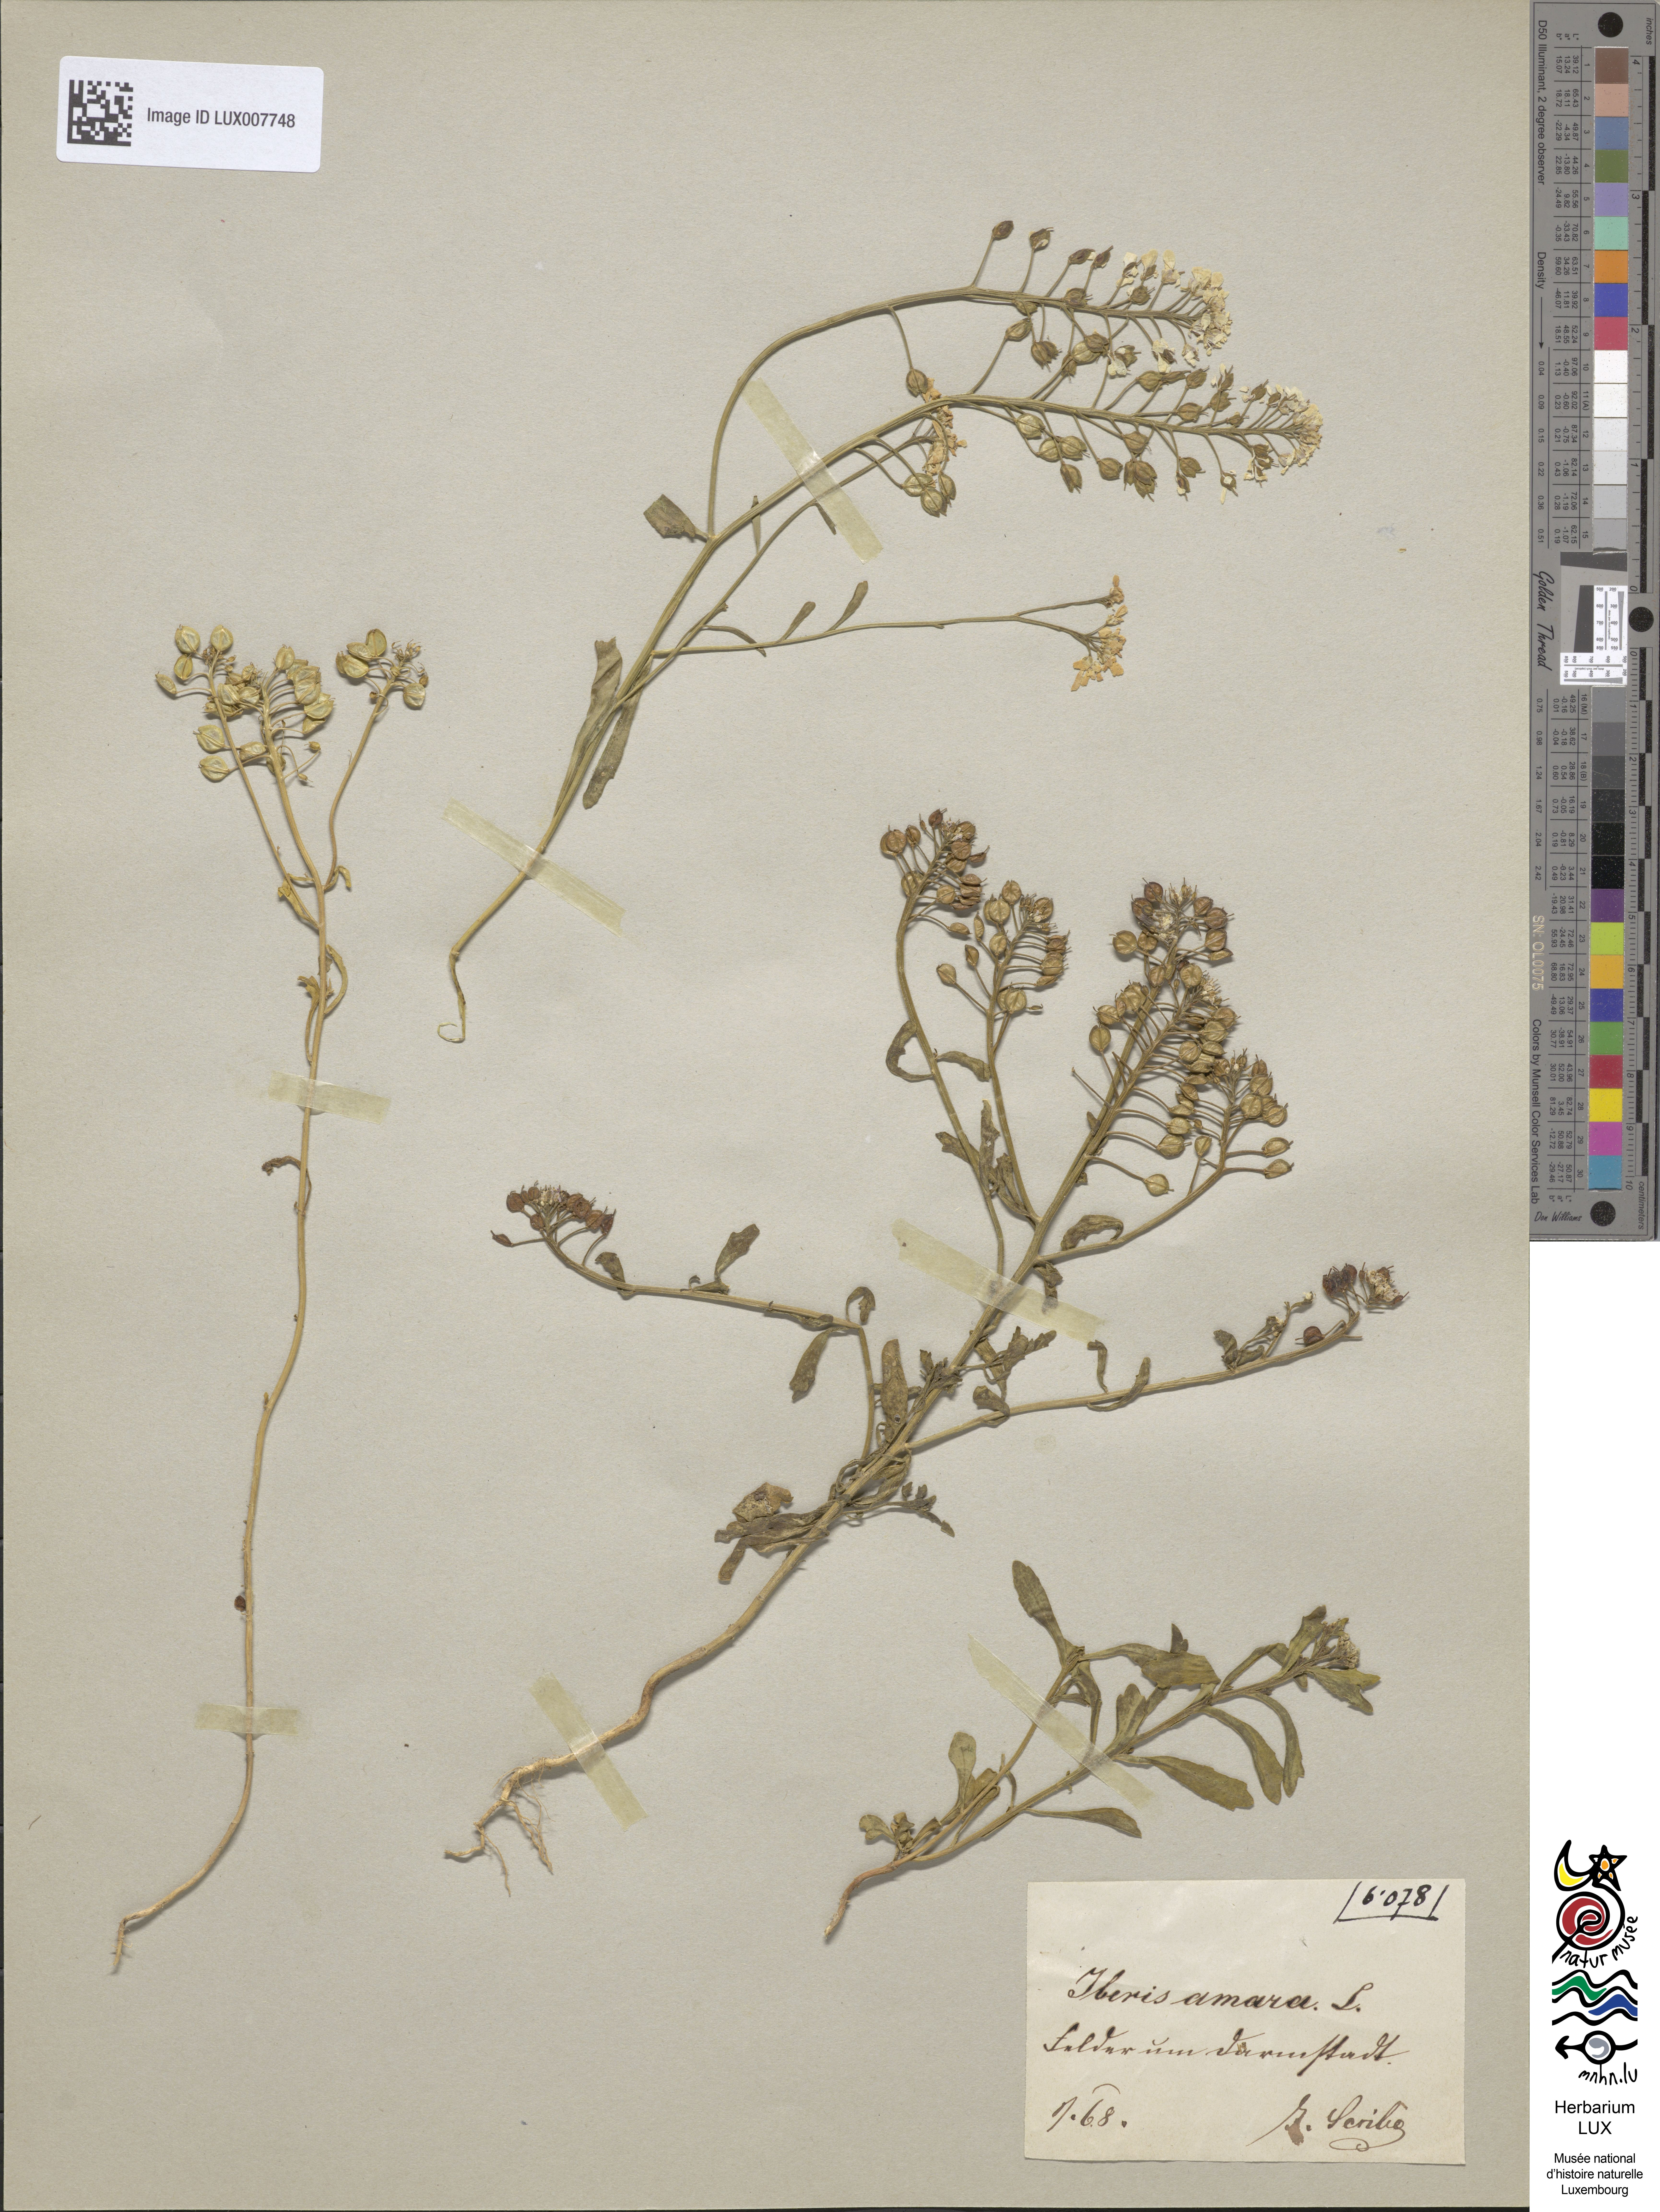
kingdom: Plantae
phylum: Tracheophyta
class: Magnoliopsida
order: Brassicales
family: Brassicaceae
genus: Iberis
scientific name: Iberis amara
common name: Annual candytuft
